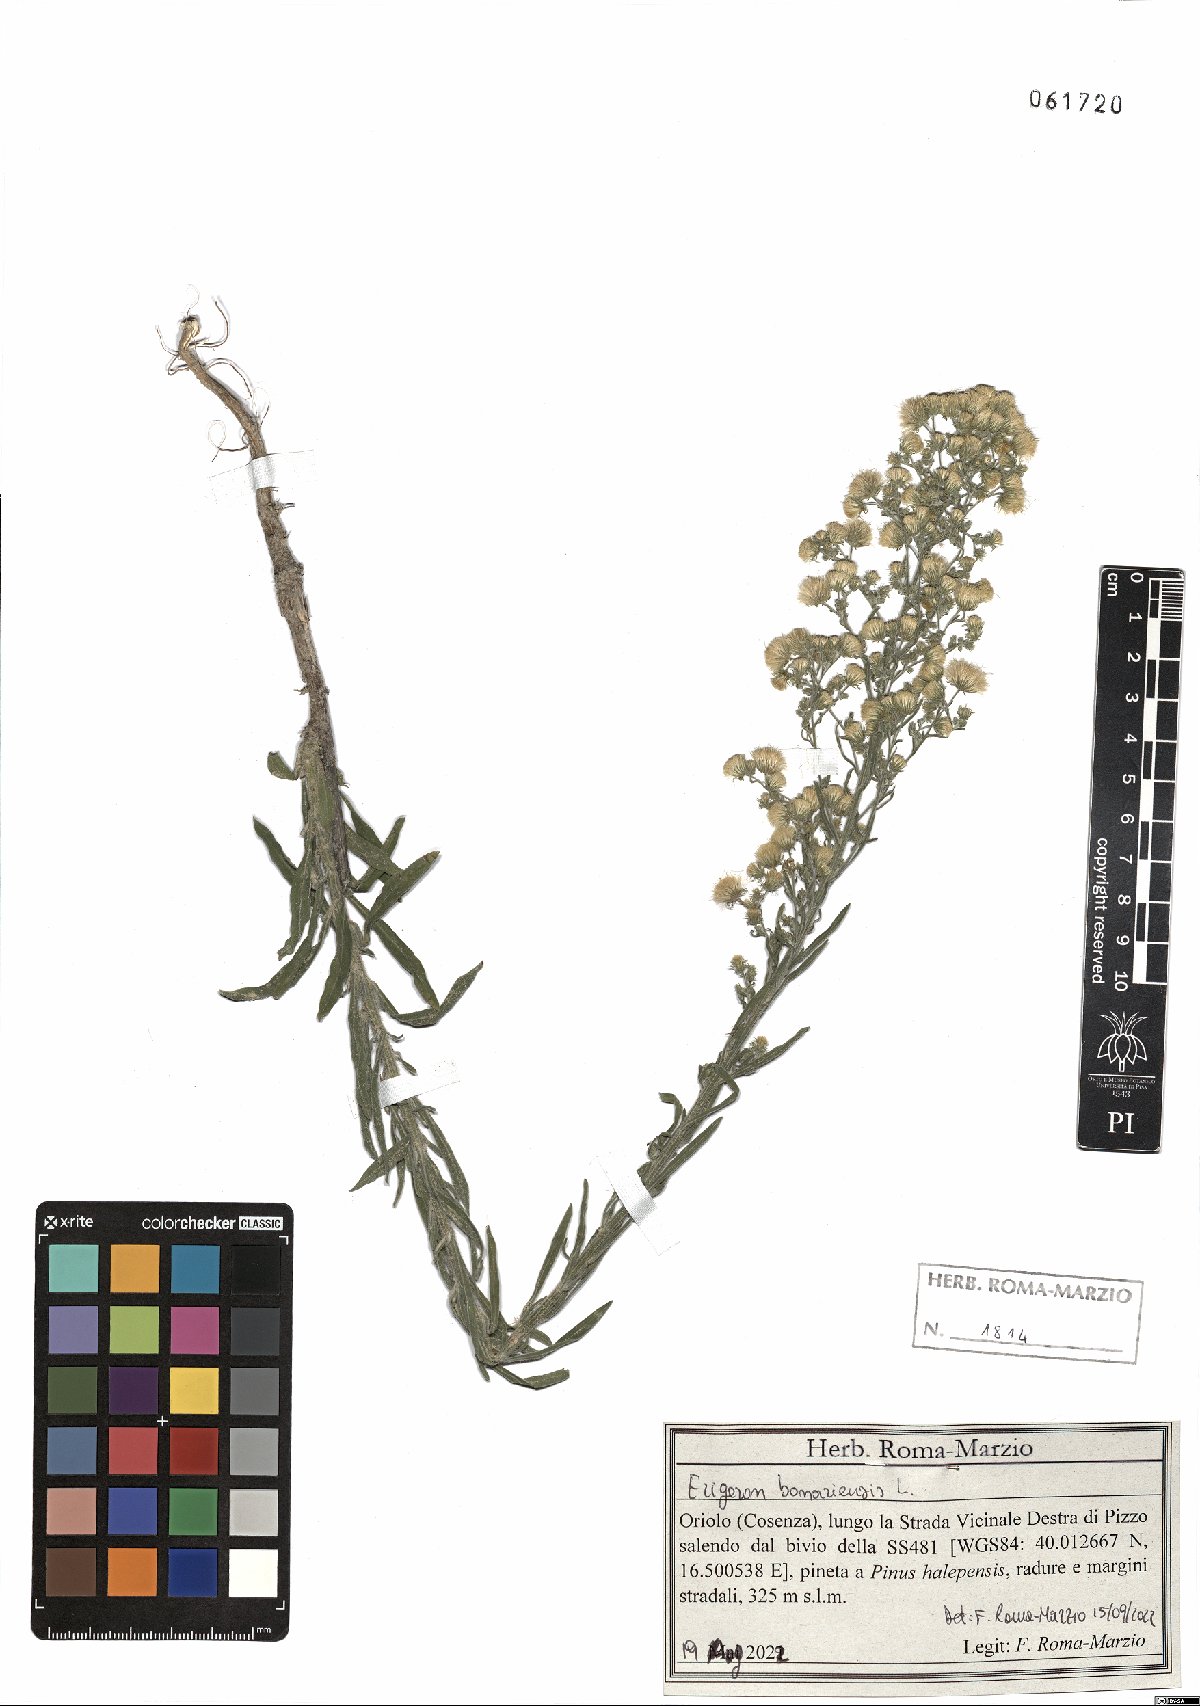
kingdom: Plantae
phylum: Tracheophyta
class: Magnoliopsida
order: Asterales
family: Asteraceae
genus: Erigeron
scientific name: Erigeron bonariensis
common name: Argentine fleabane
